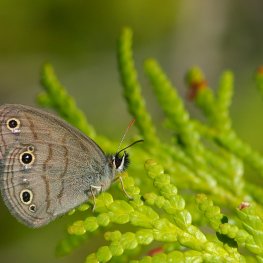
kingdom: Animalia
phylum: Arthropoda
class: Insecta
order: Lepidoptera
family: Nymphalidae
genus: Euptychia
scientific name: Euptychia cymela
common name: Little Wood Satyr
